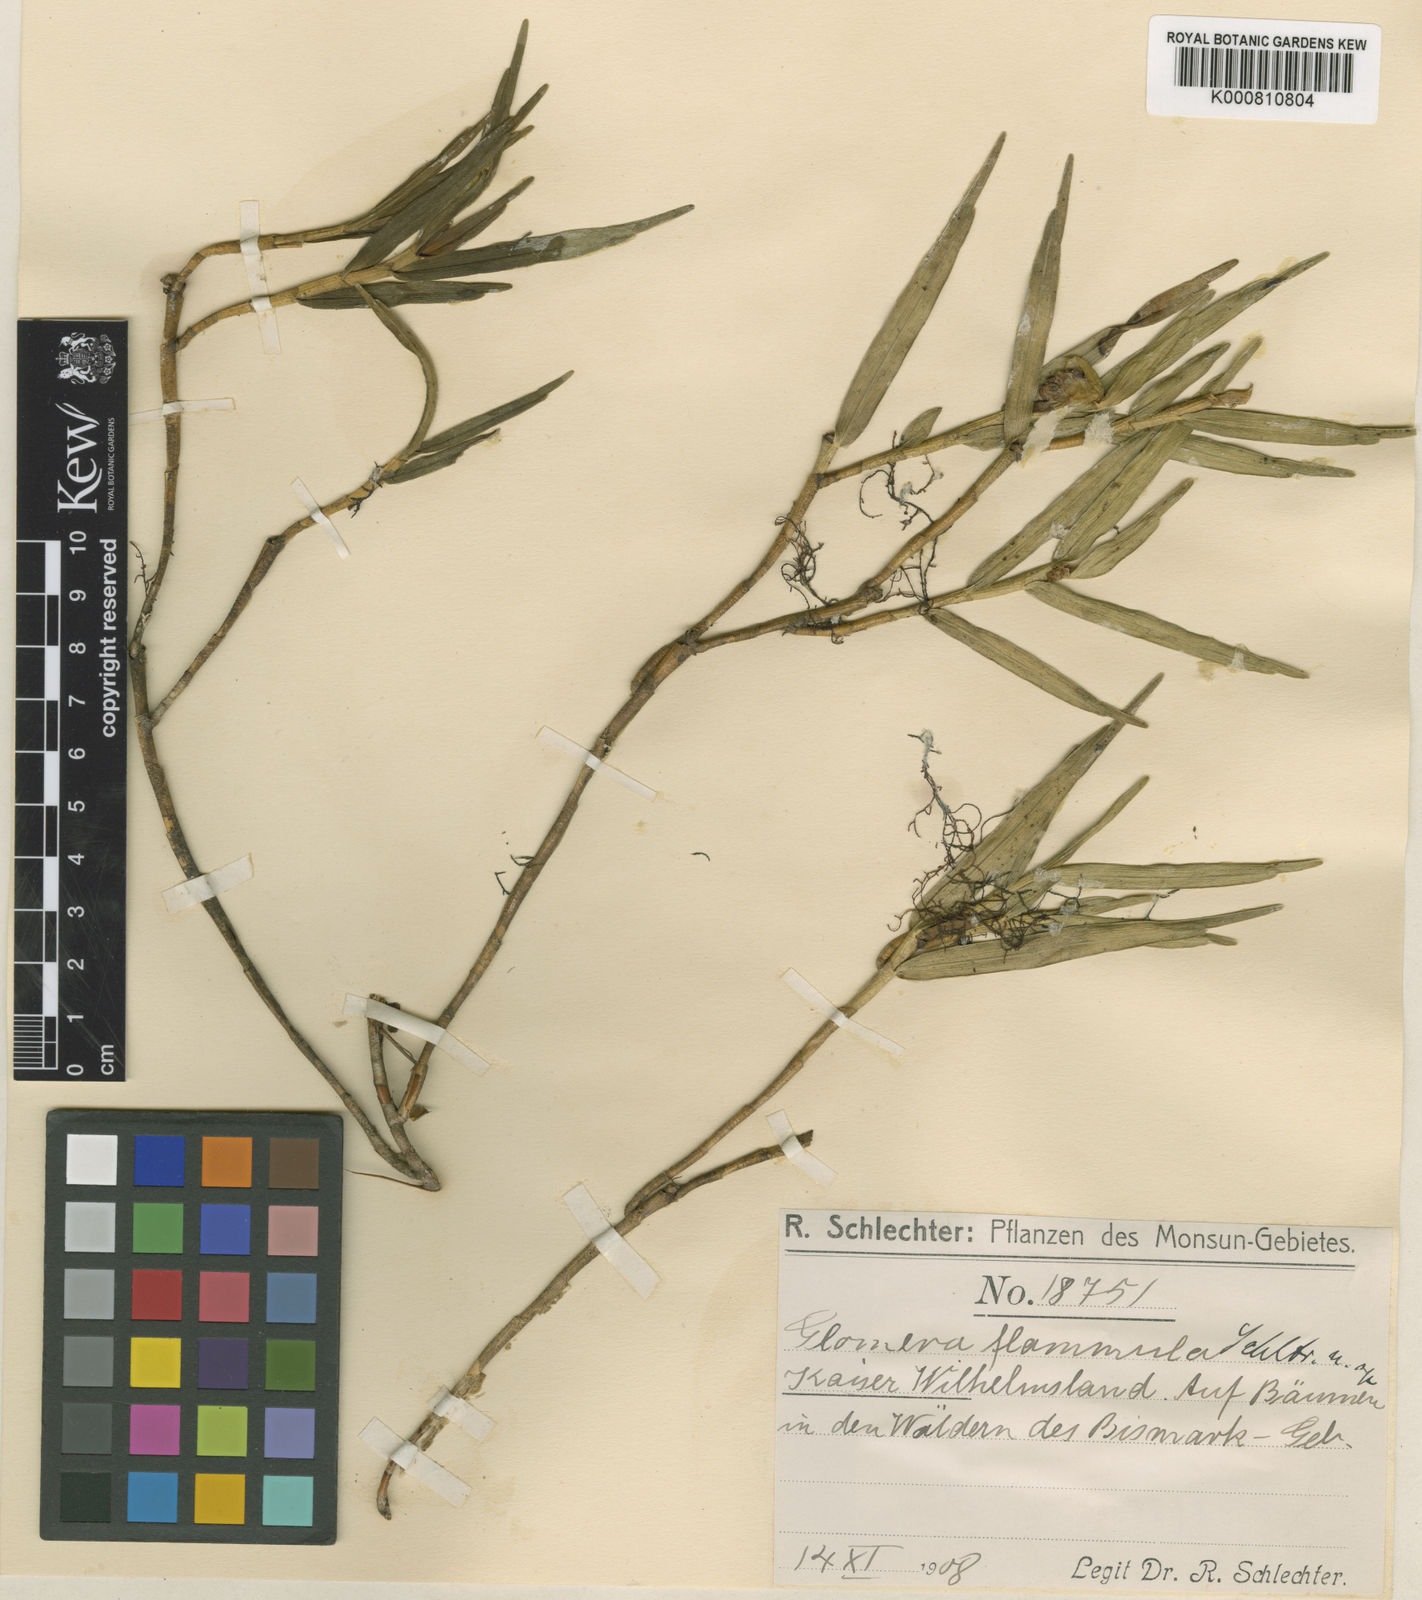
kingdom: Plantae
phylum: Tracheophyta
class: Liliopsida
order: Asparagales
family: Orchidaceae
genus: Glomera
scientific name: Glomera flammula
